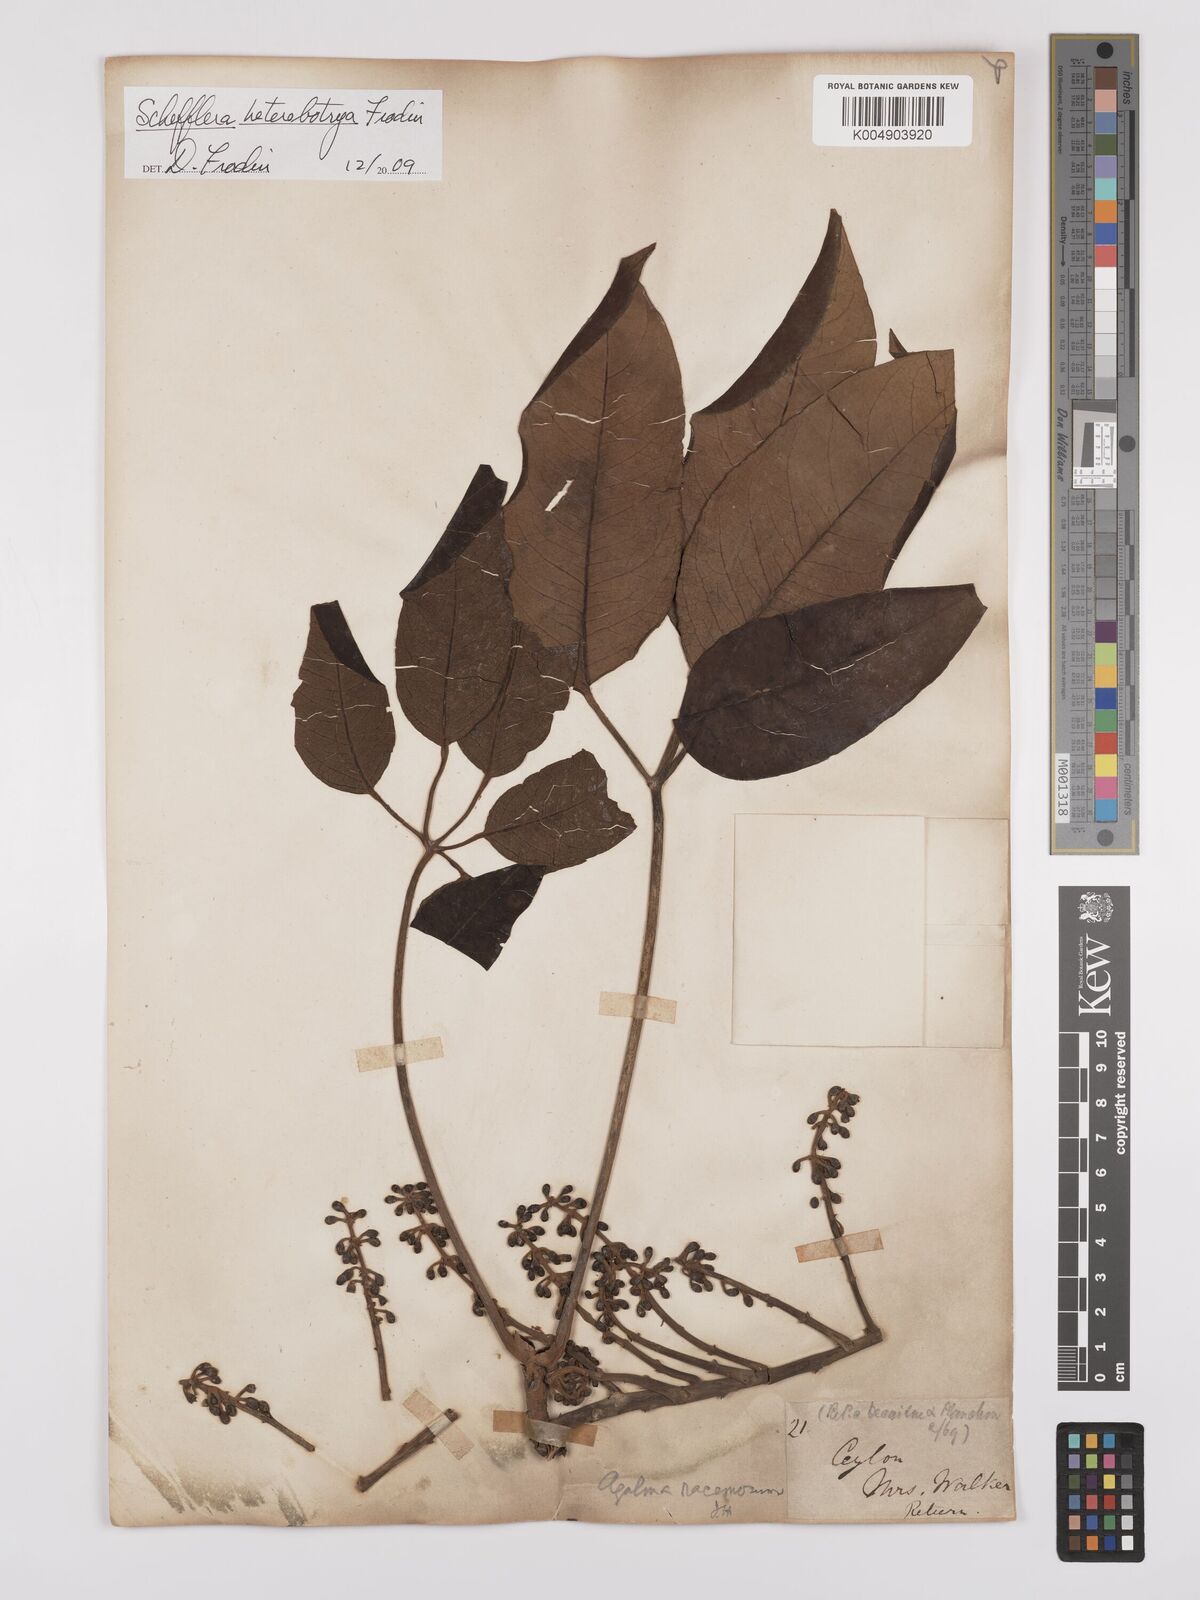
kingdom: Plantae
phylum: Tracheophyta
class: Magnoliopsida
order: Apiales
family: Araliaceae
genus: Heptapleurum
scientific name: Heptapleurum
